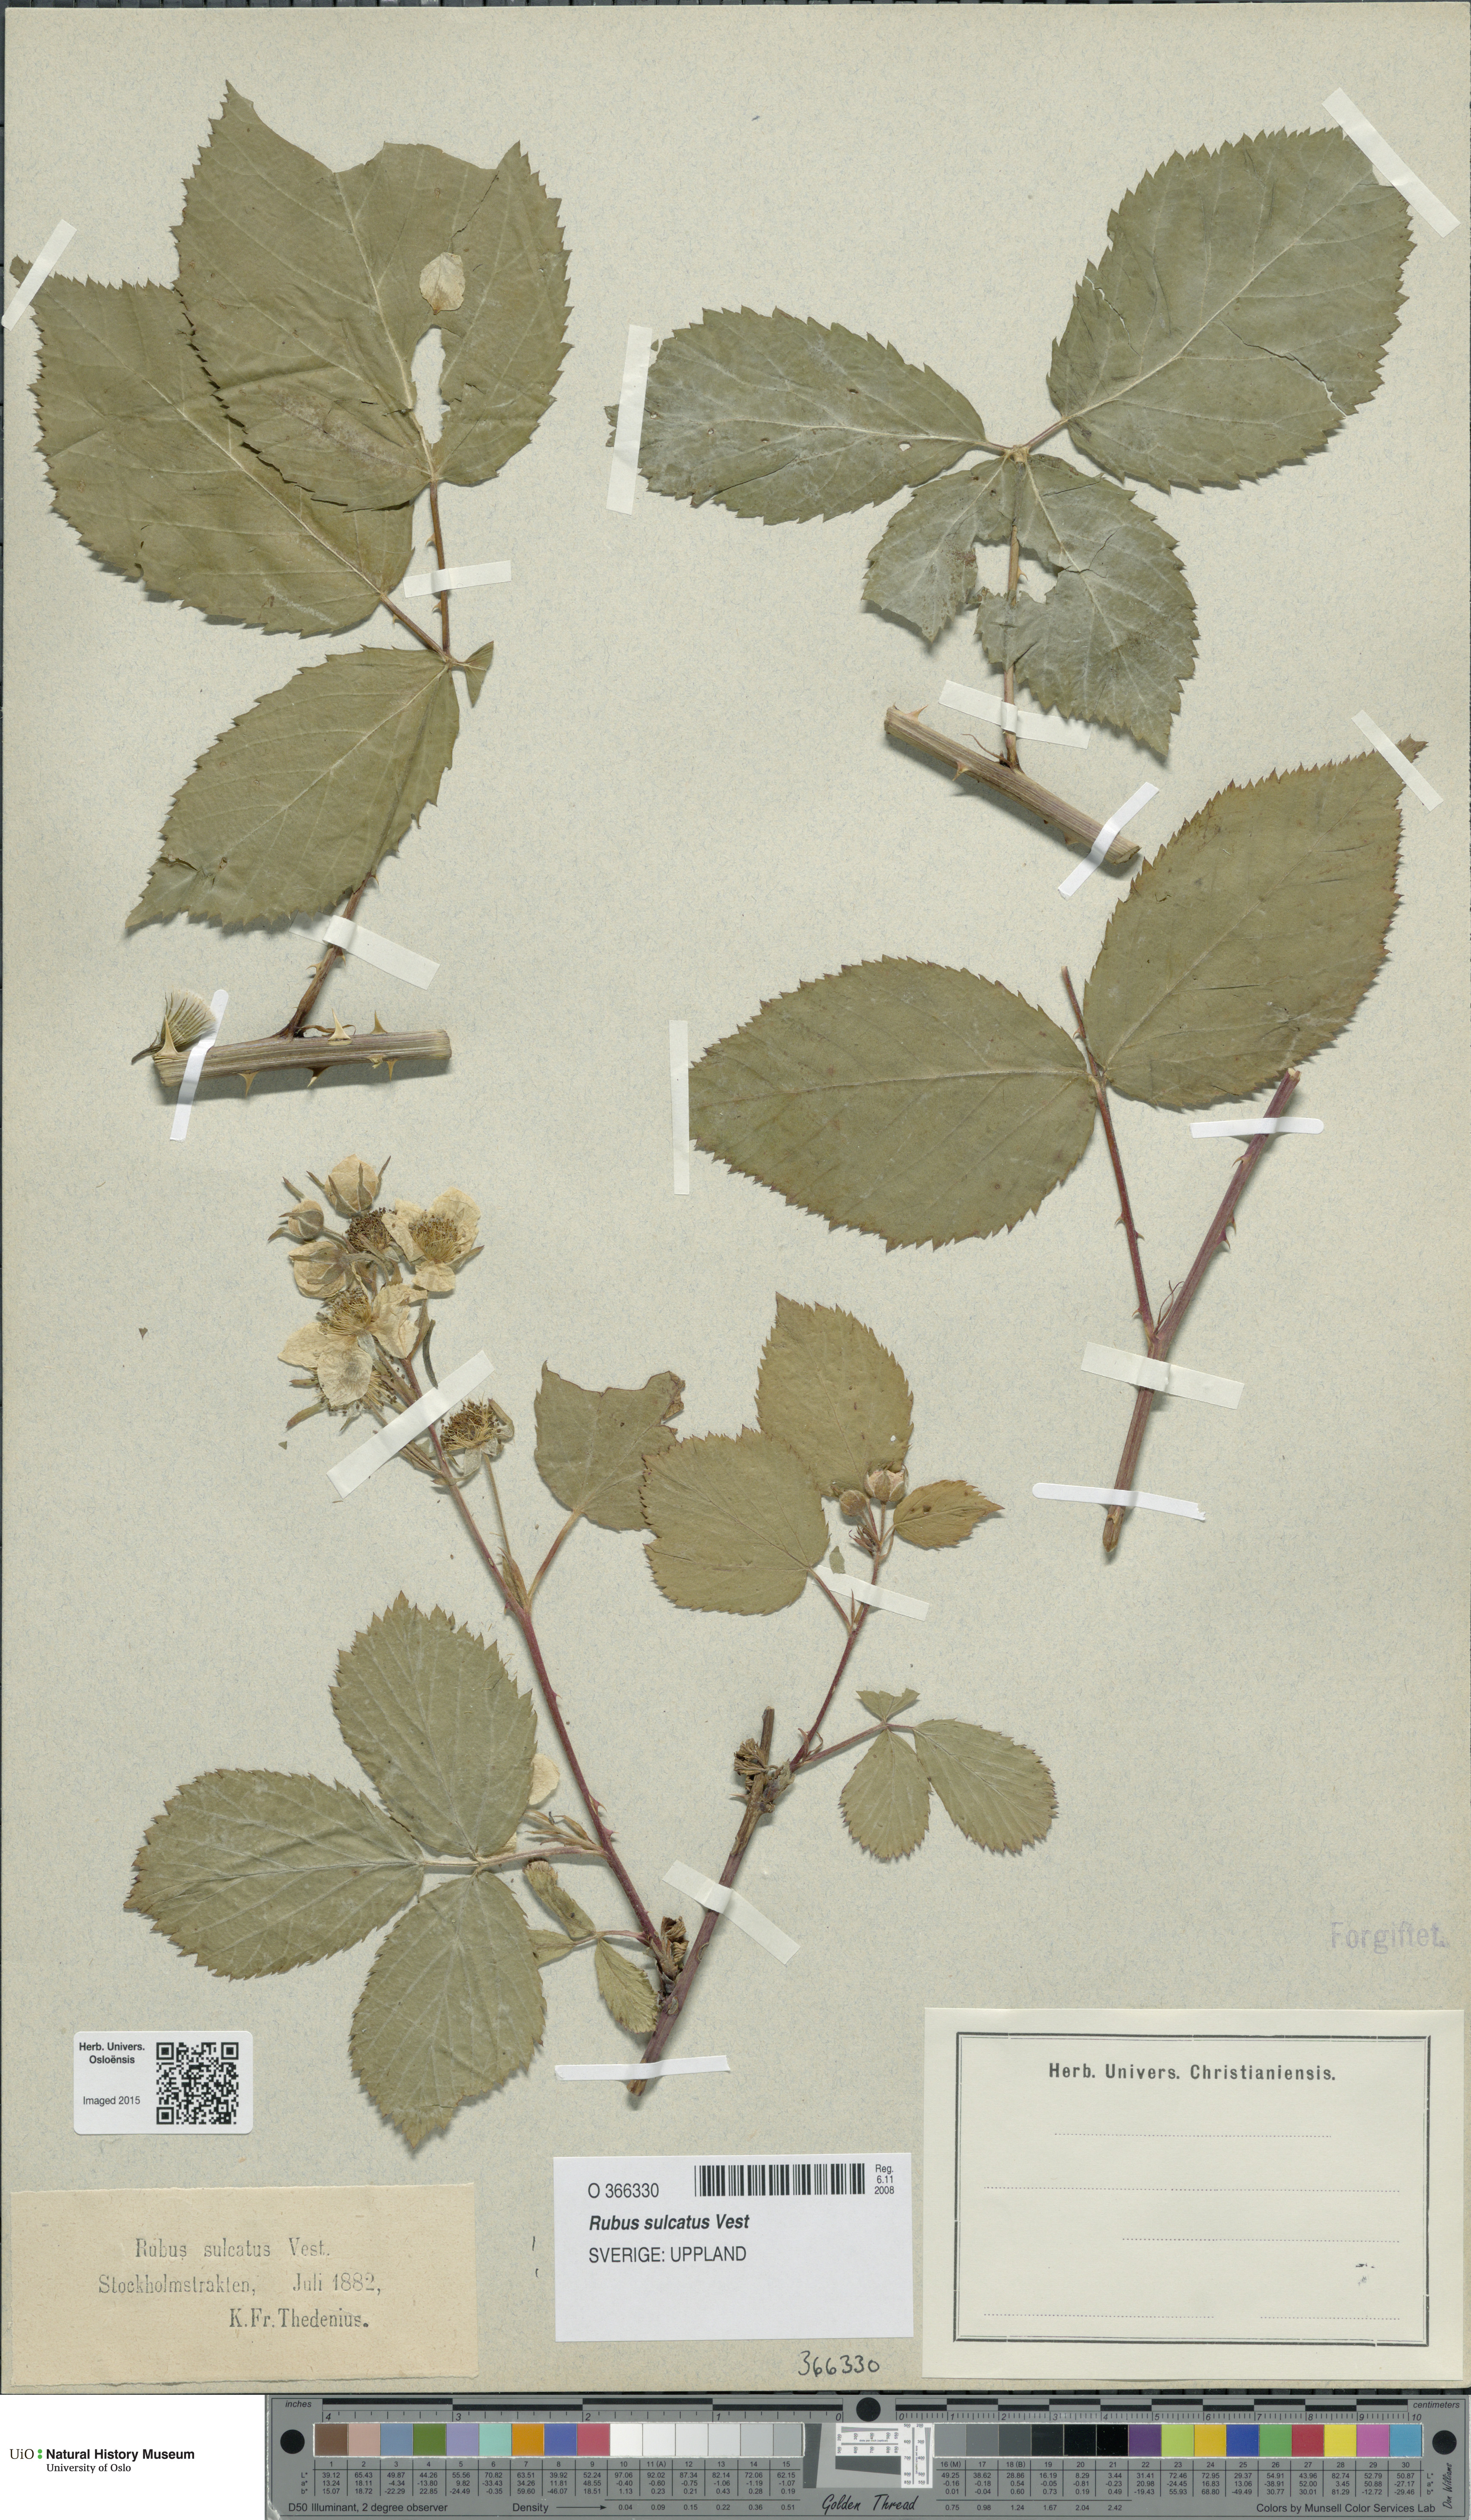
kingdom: Plantae
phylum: Tracheophyta
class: Magnoliopsida
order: Rosales
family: Rosaceae
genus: Rubus
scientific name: Rubus sulcatus
